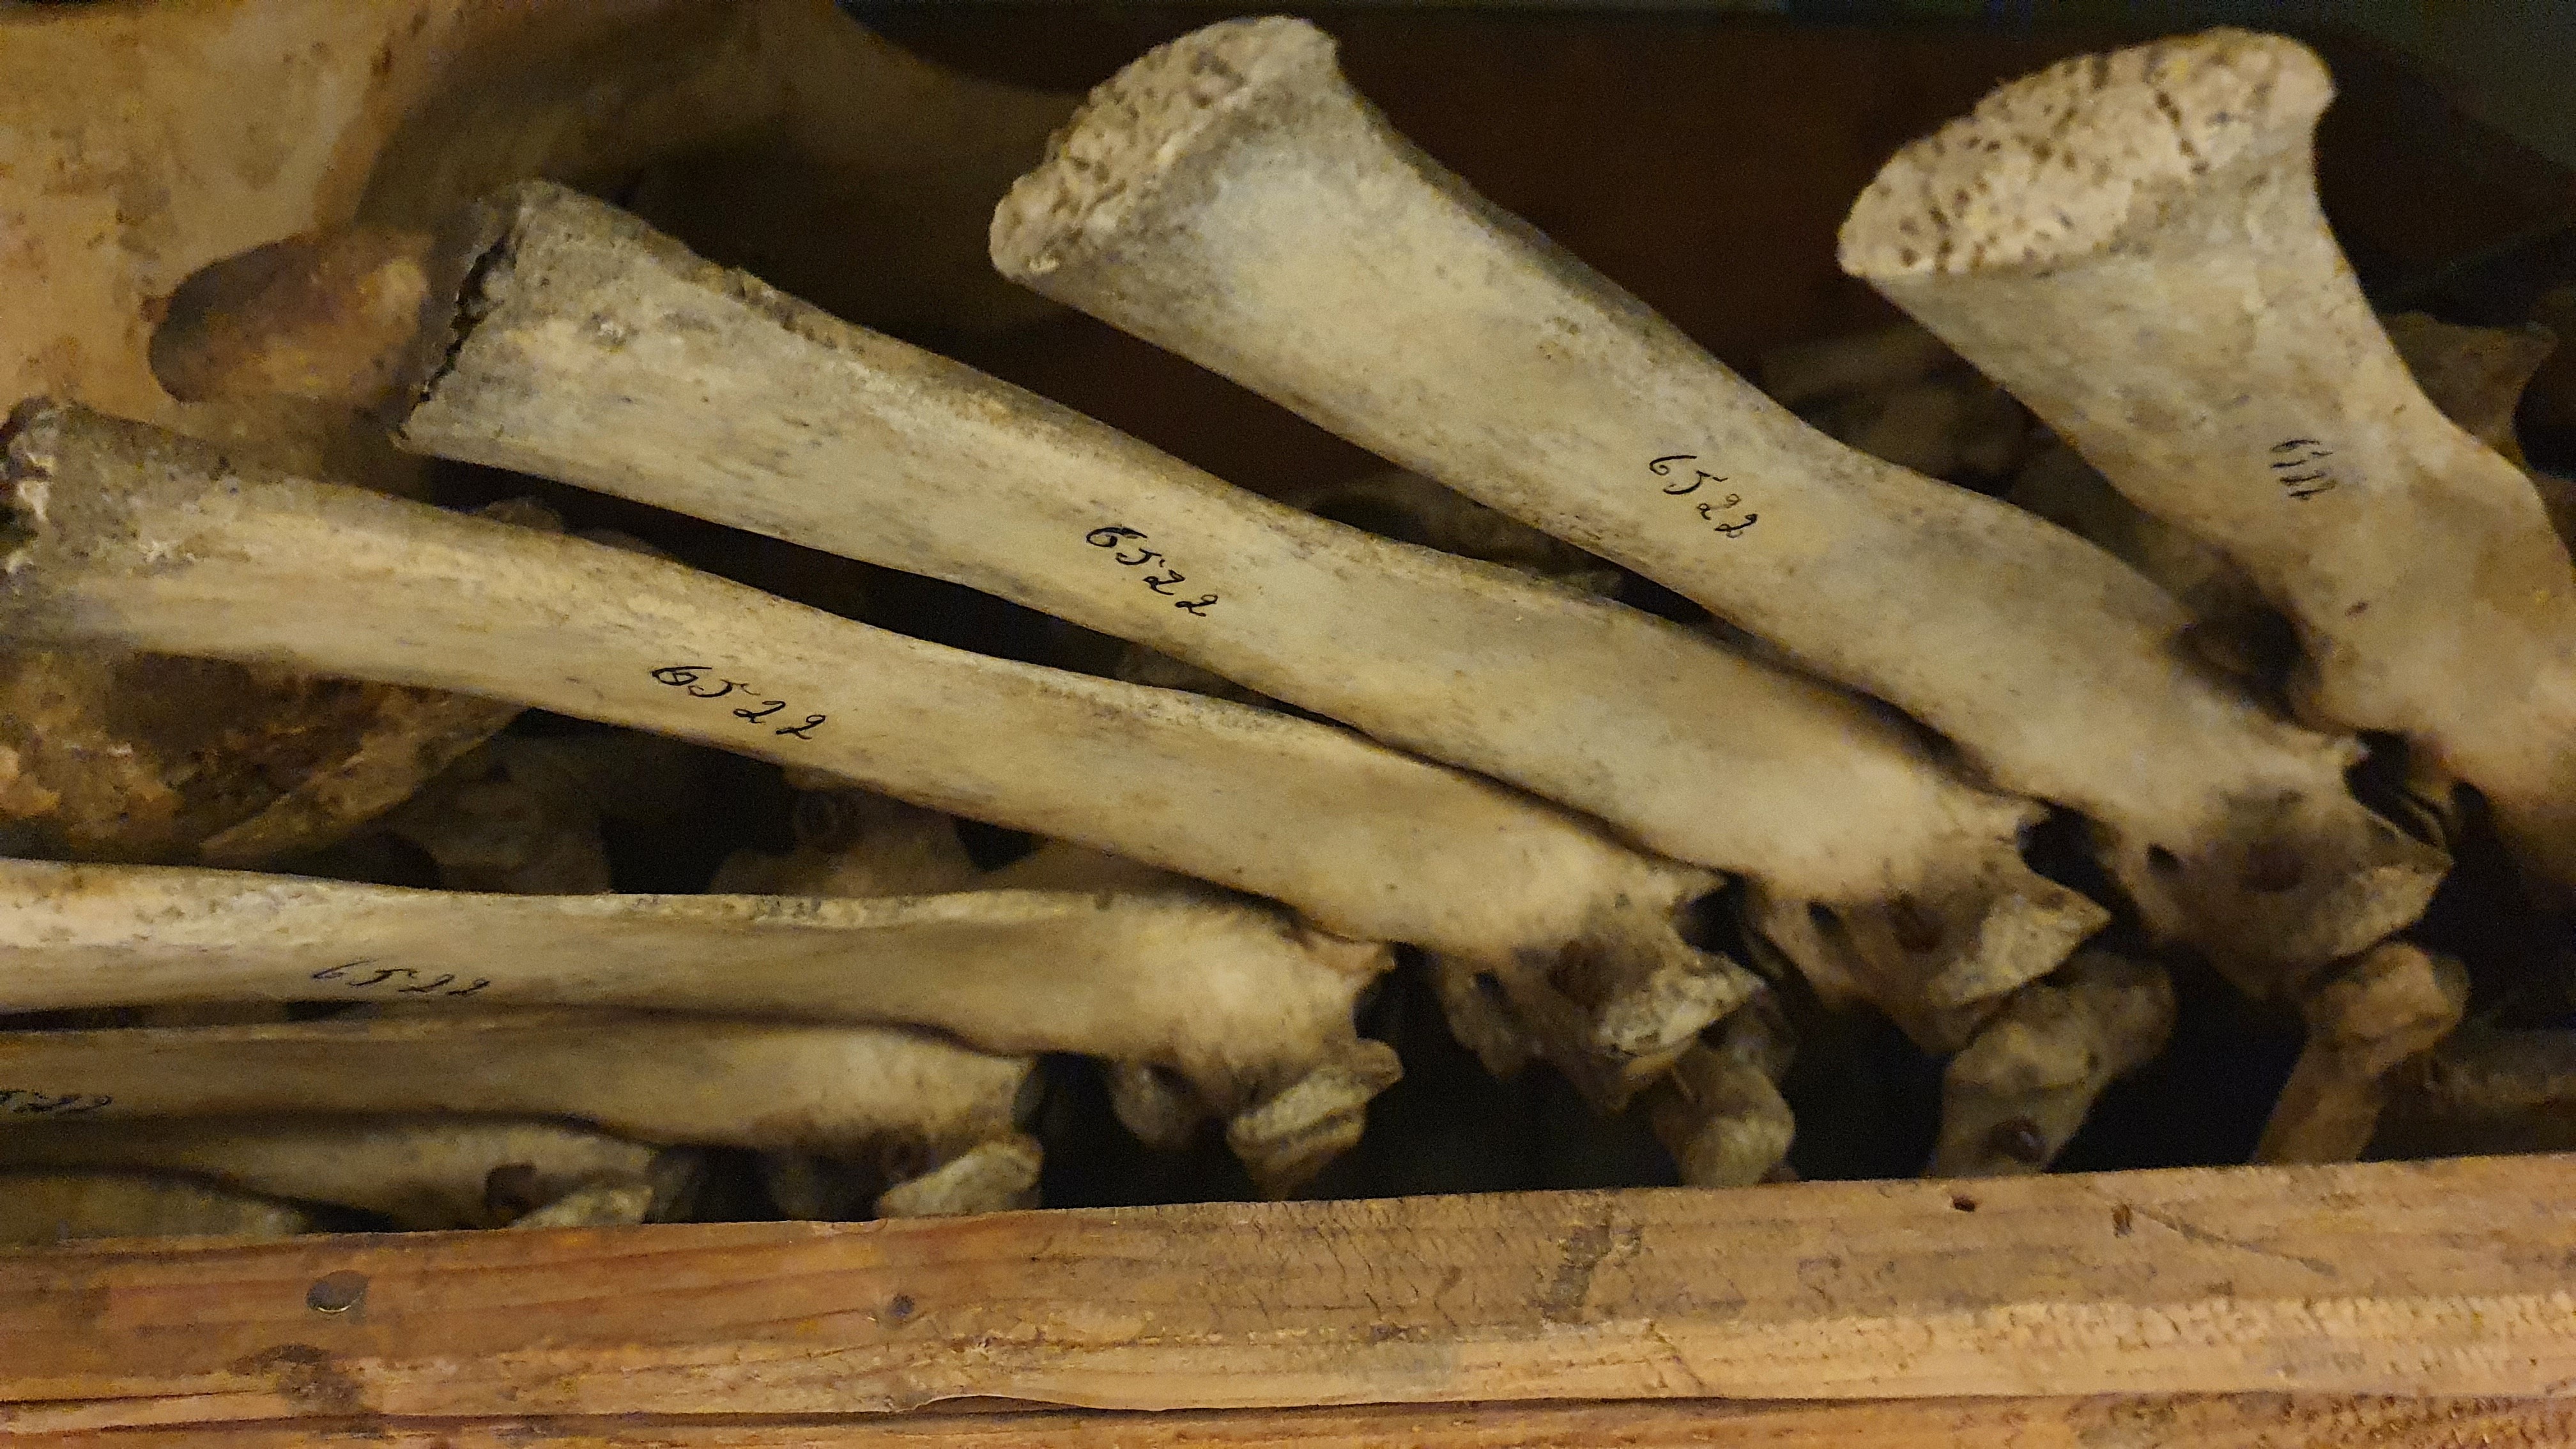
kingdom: Animalia
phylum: Chordata
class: Mammalia
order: Artiodactyla
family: Bovidae
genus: Syncerus
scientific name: Syncerus caffer
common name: African buffalo
